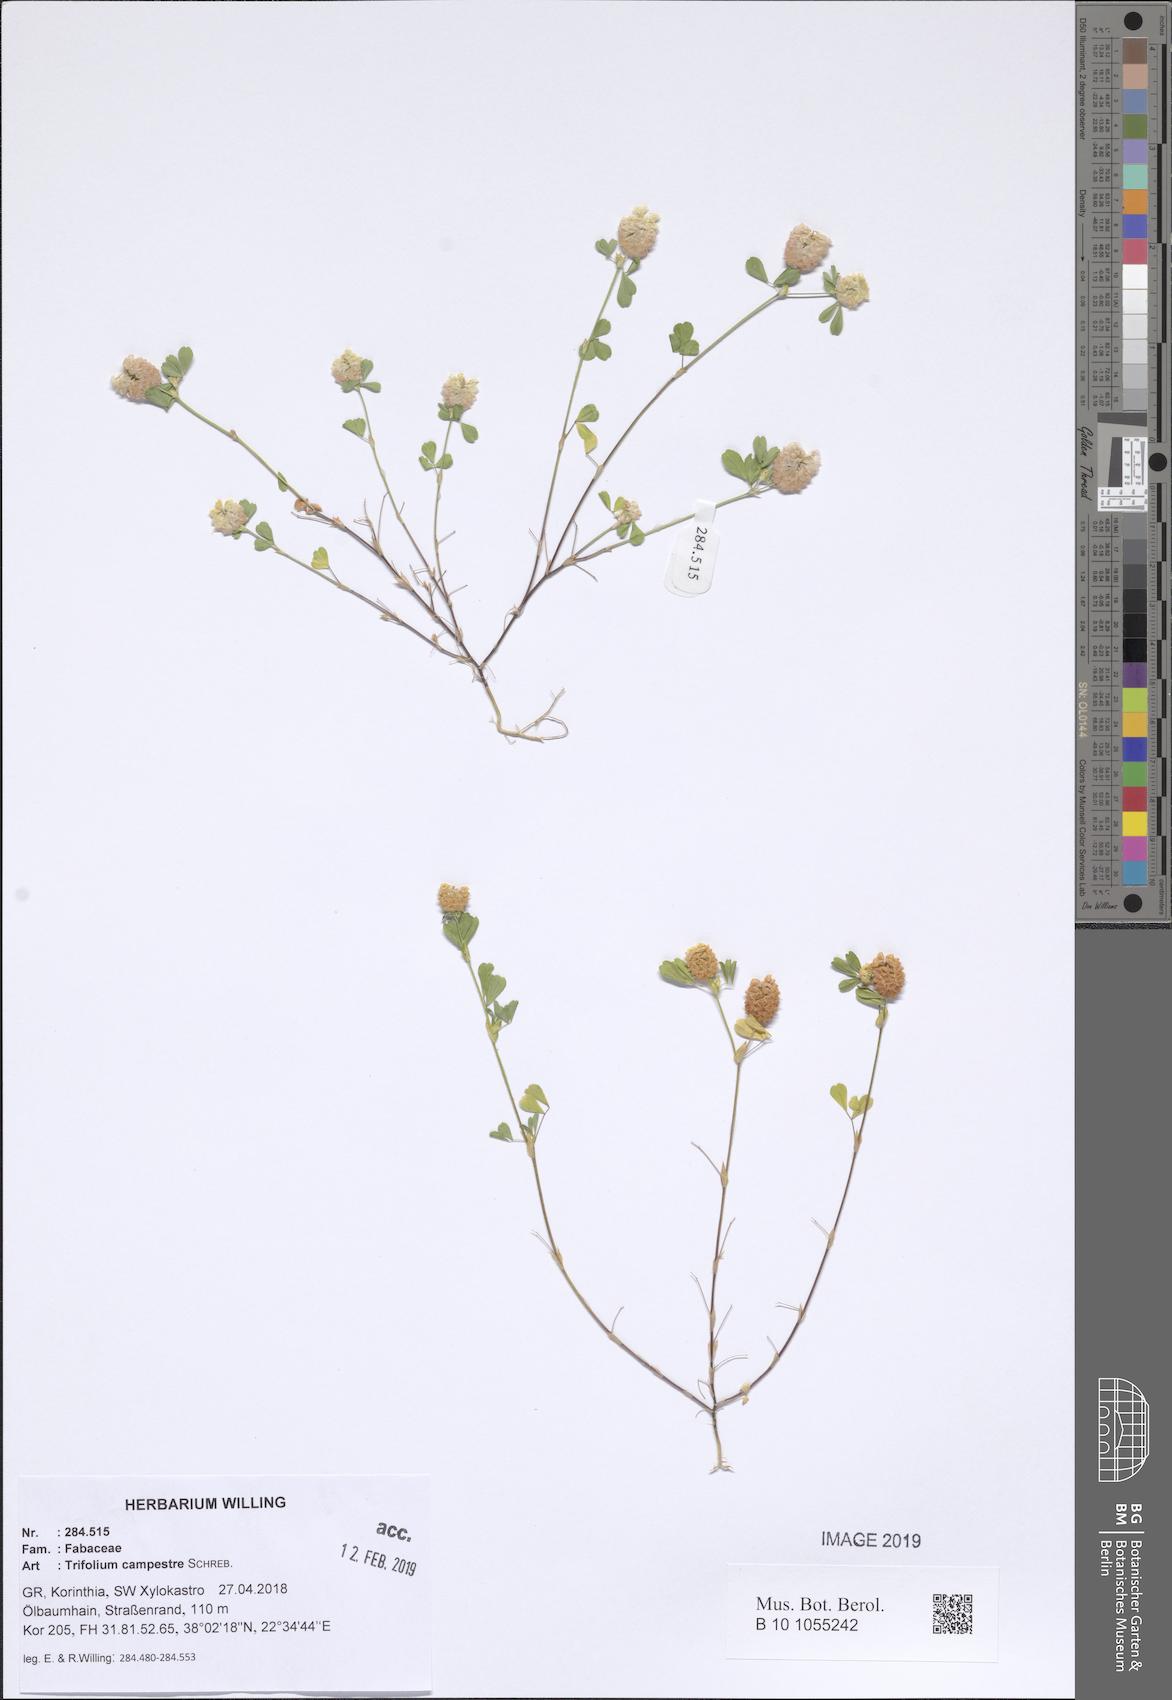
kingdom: Plantae
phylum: Tracheophyta
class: Magnoliopsida
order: Fabales
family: Fabaceae
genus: Trifolium
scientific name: Trifolium campestre
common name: Field clover
